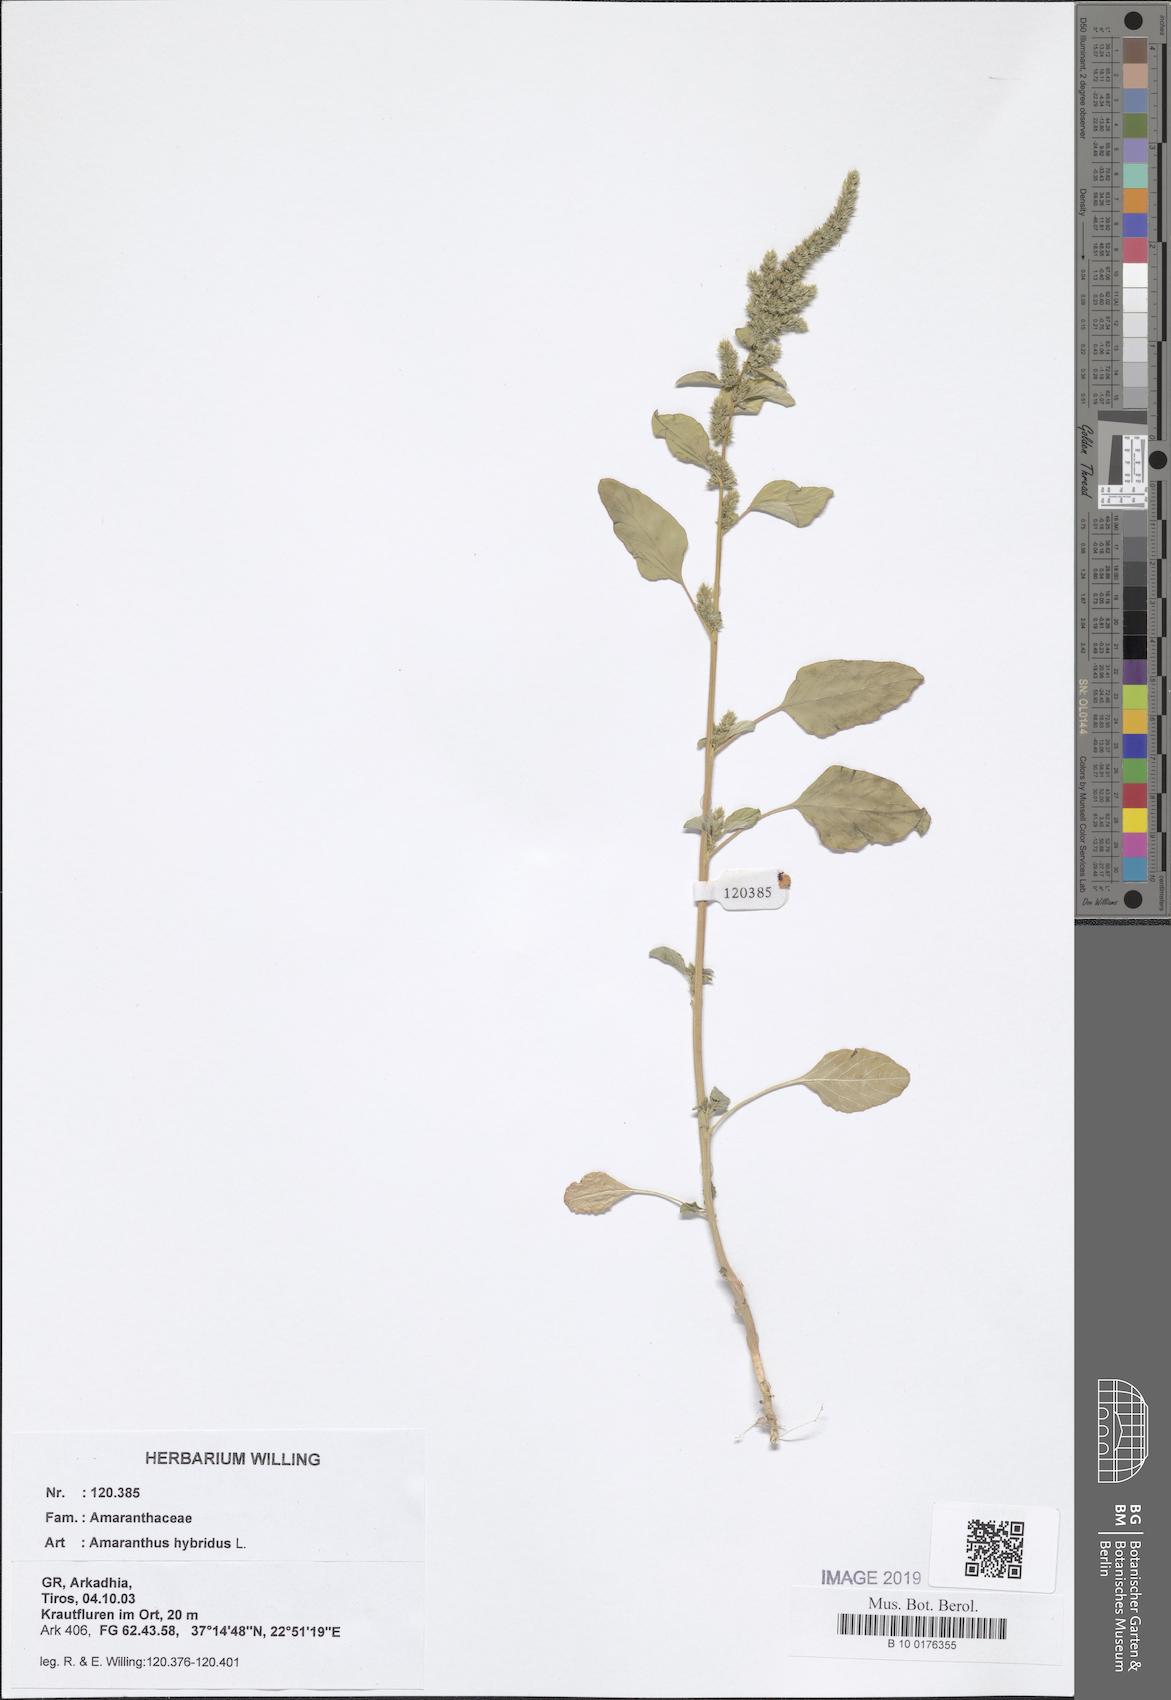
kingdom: Plantae
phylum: Tracheophyta
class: Magnoliopsida
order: Caryophyllales
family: Amaranthaceae
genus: Amaranthus
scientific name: Amaranthus hybridus
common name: Green amaranth
